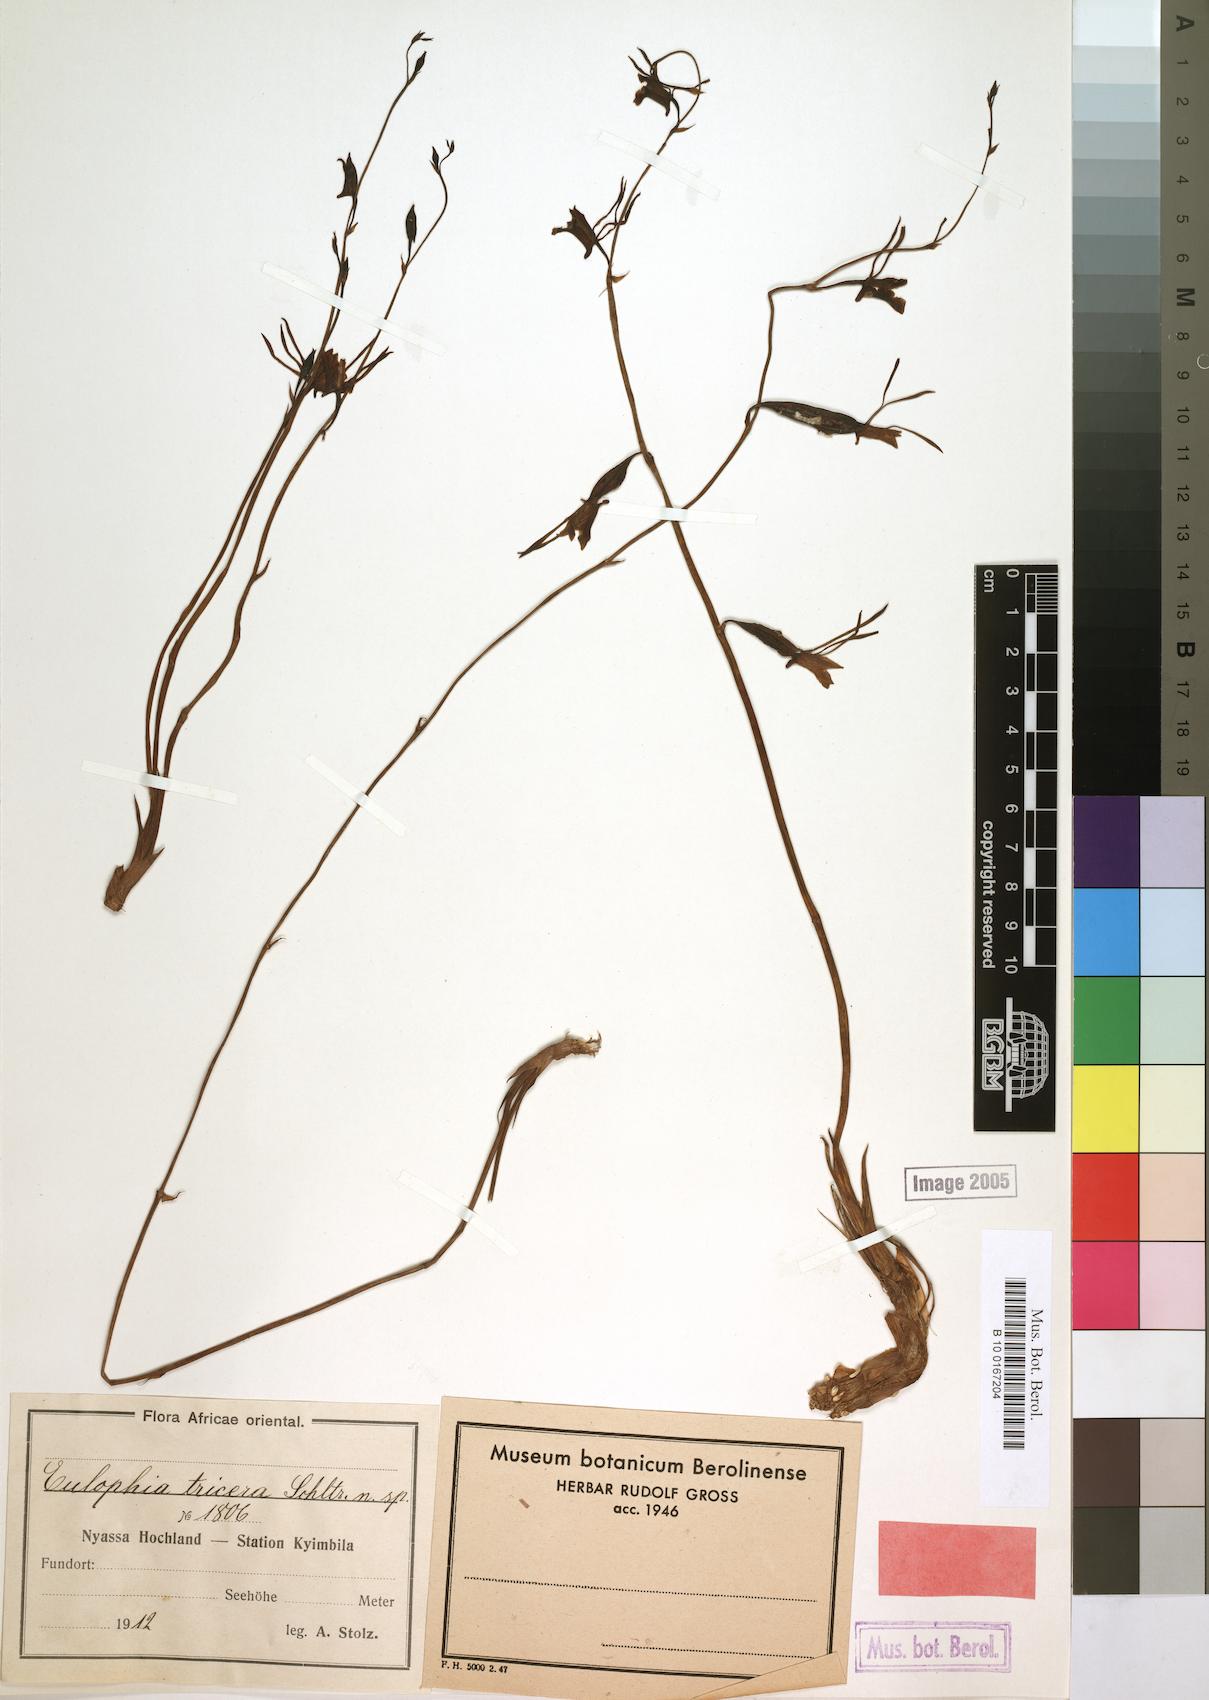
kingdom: Plantae
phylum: Tracheophyta
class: Liliopsida
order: Asparagales
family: Orchidaceae
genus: Eulophia
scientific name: Eulophia longisepala
